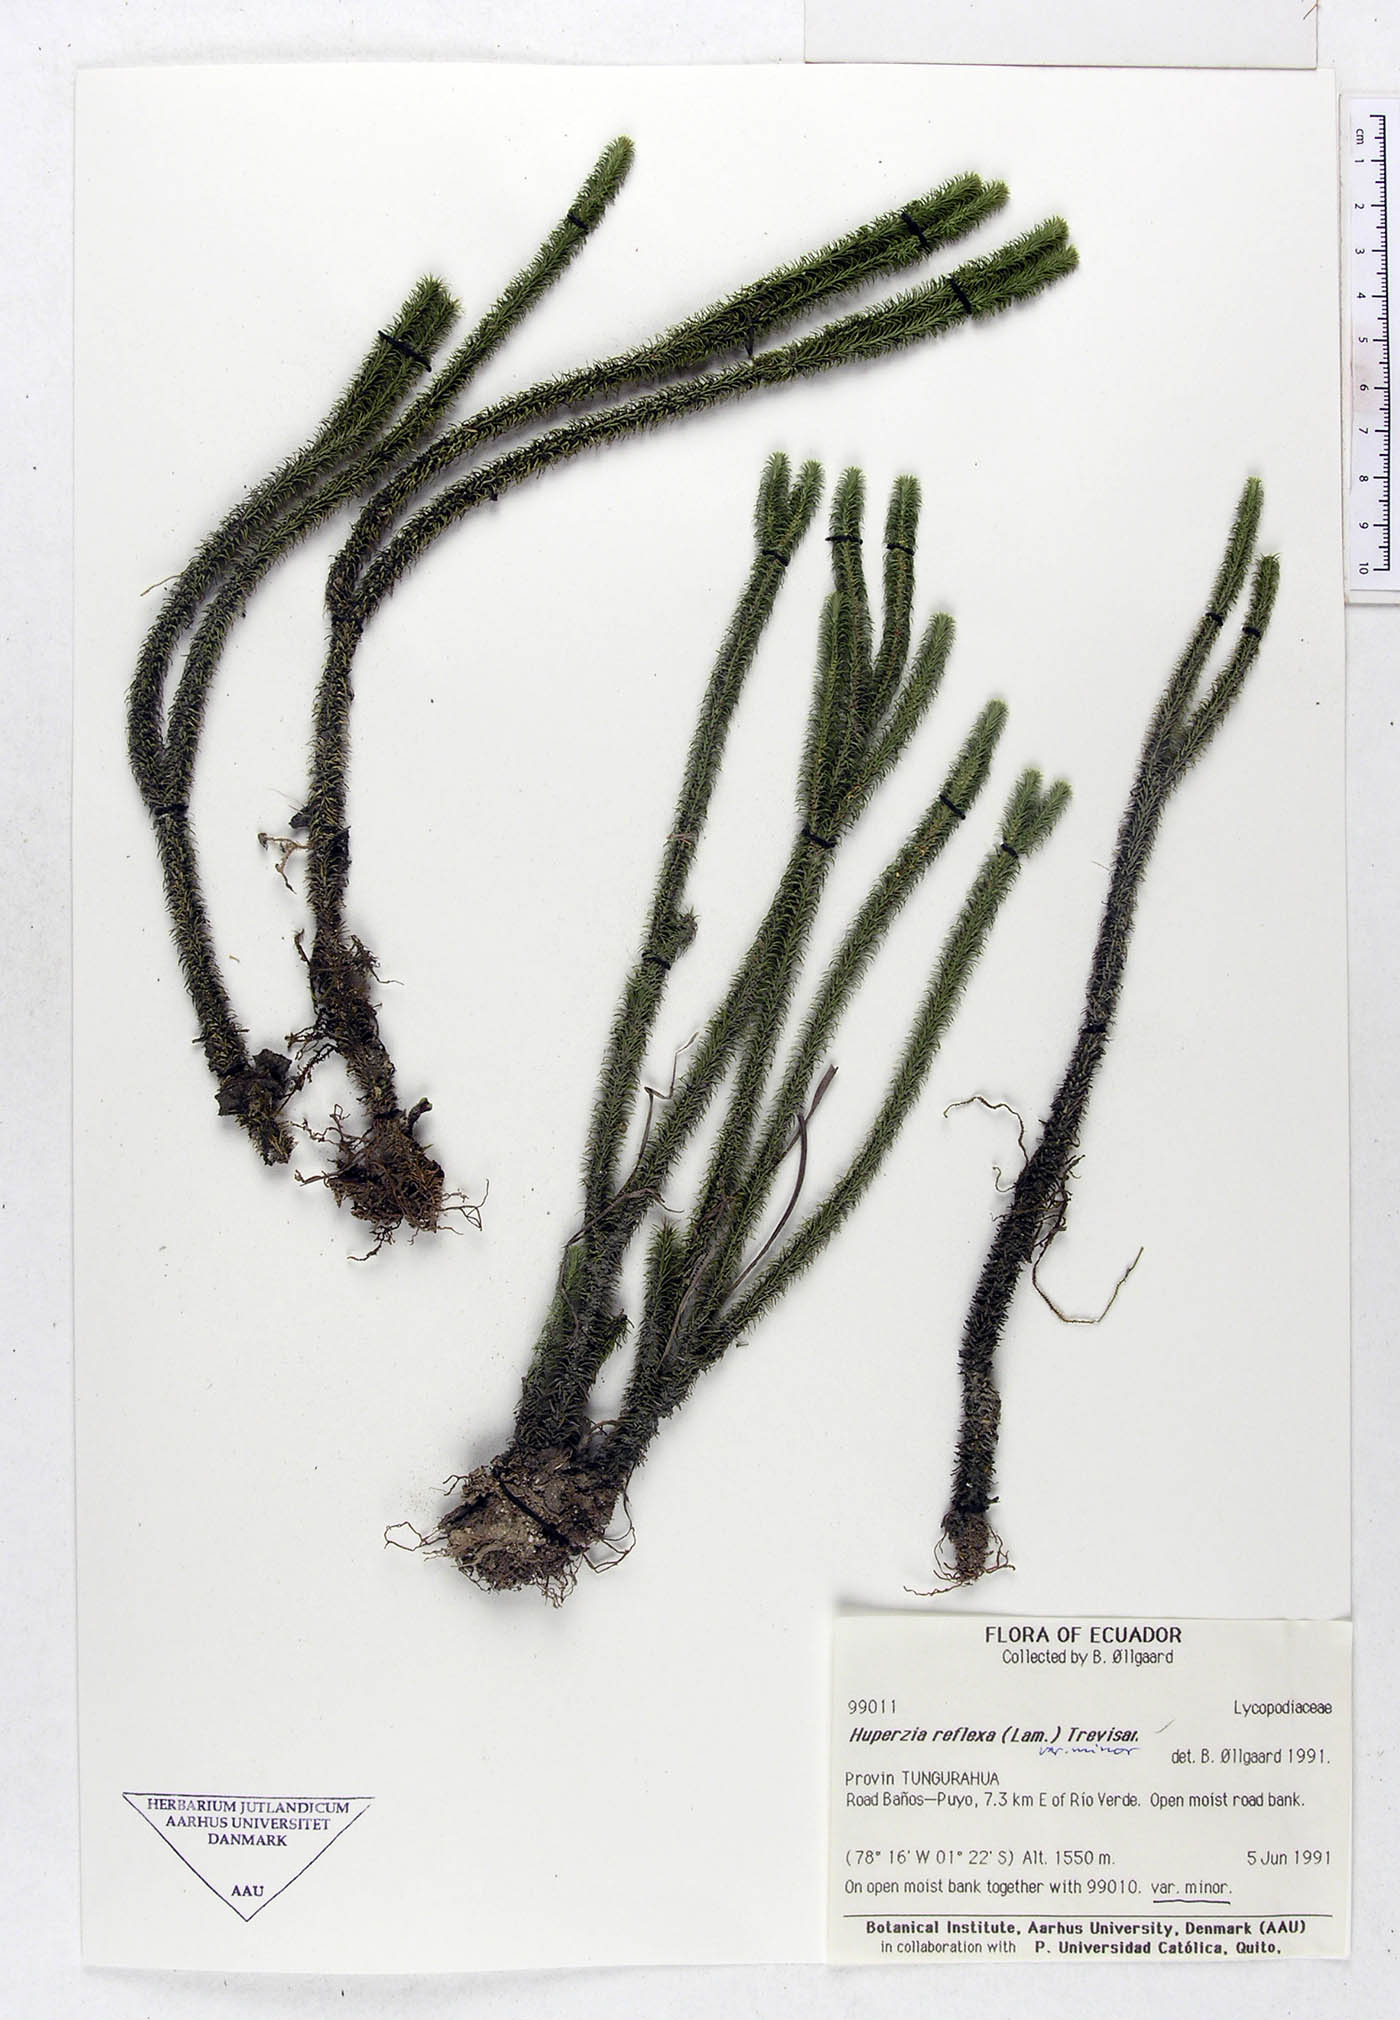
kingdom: Plantae
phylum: Tracheophyta
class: Lycopodiopsida
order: Lycopodiales
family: Lycopodiaceae
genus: Phlegmariurus
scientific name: Phlegmariurus reflexus
